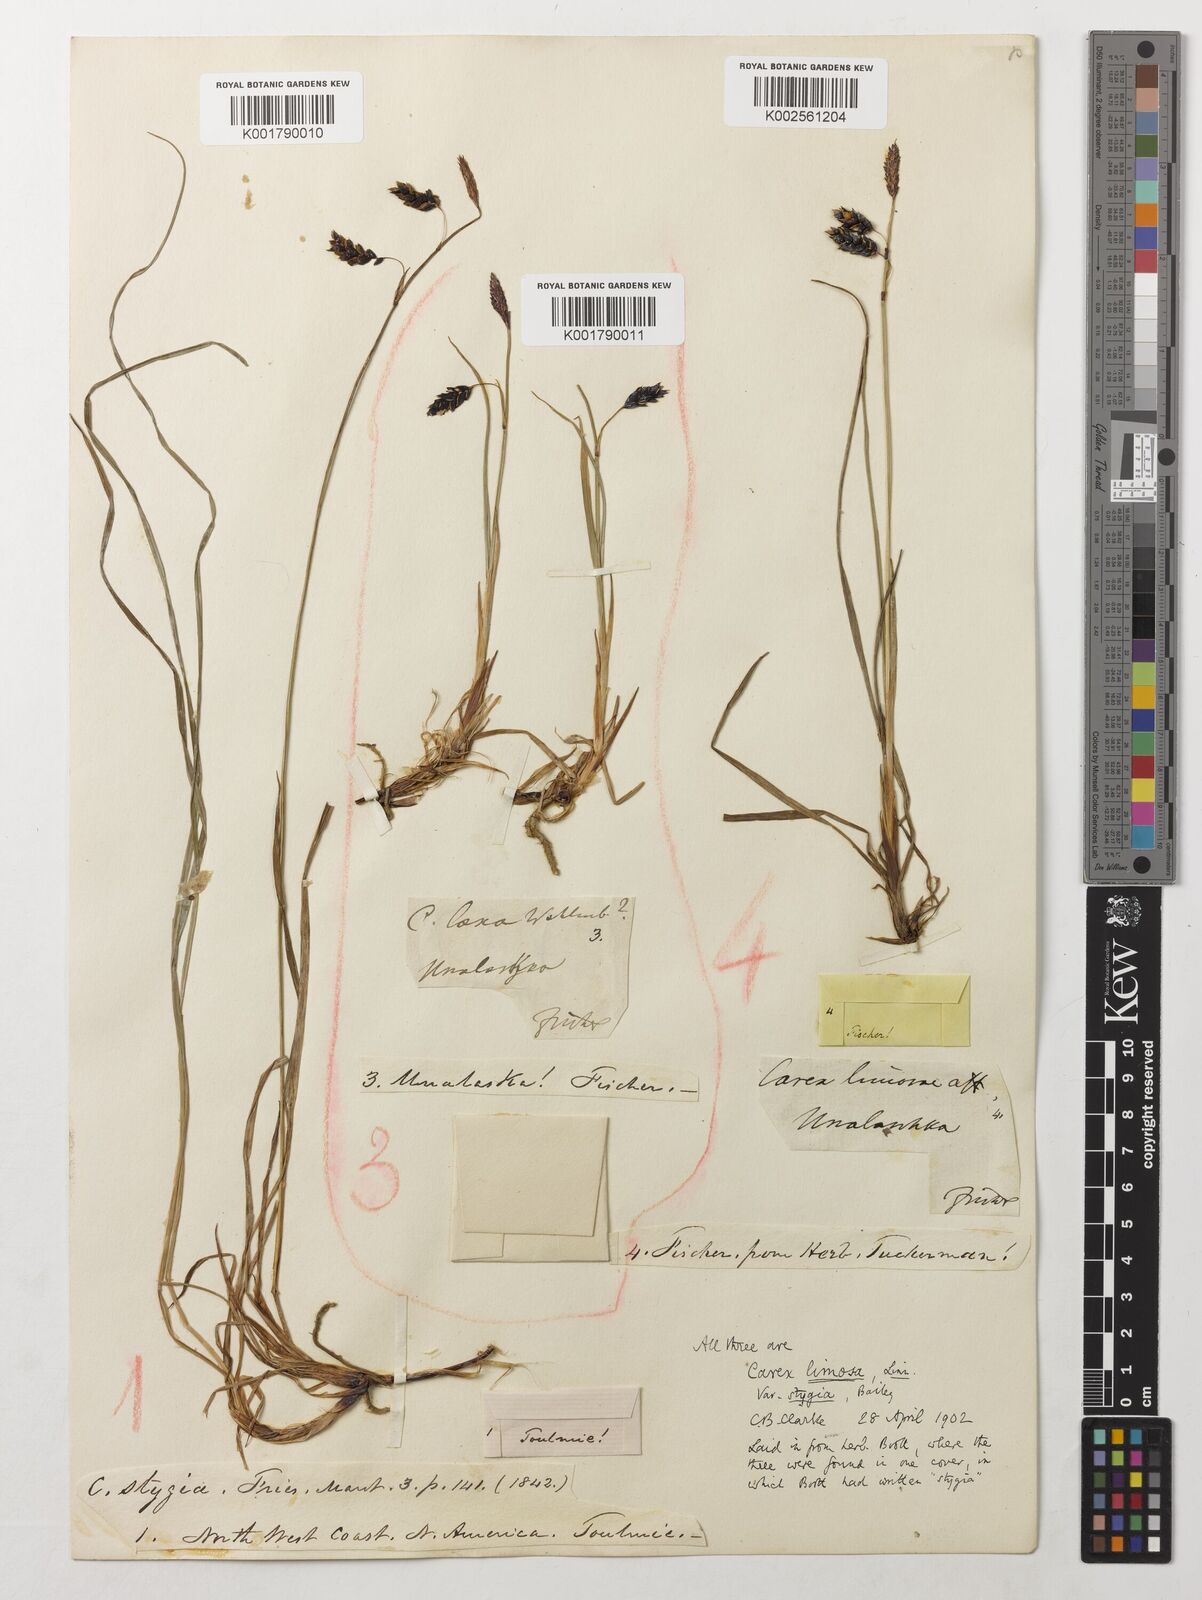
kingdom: Plantae
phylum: Tracheophyta
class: Liliopsida
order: Poales
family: Cyperaceae
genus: Carex
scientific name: Carex stygia
